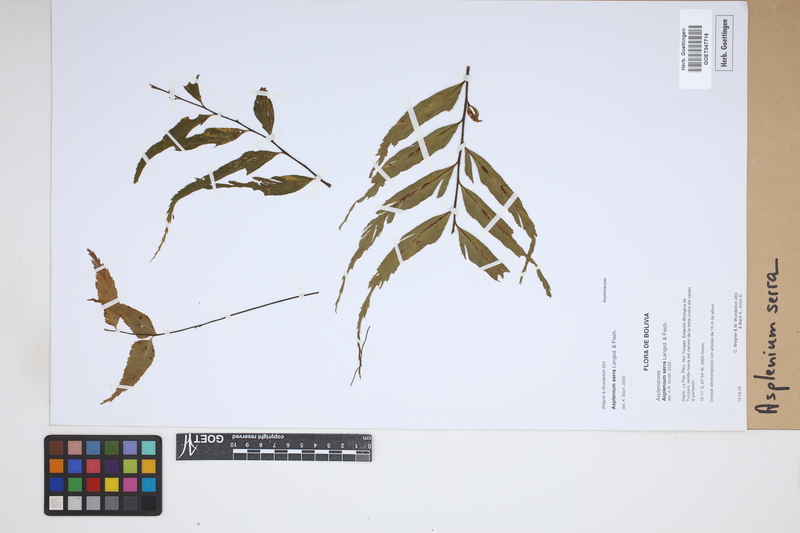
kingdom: Plantae
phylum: Tracheophyta
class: Polypodiopsida
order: Polypodiales
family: Aspleniaceae
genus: Asplenium
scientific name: Asplenium serra
